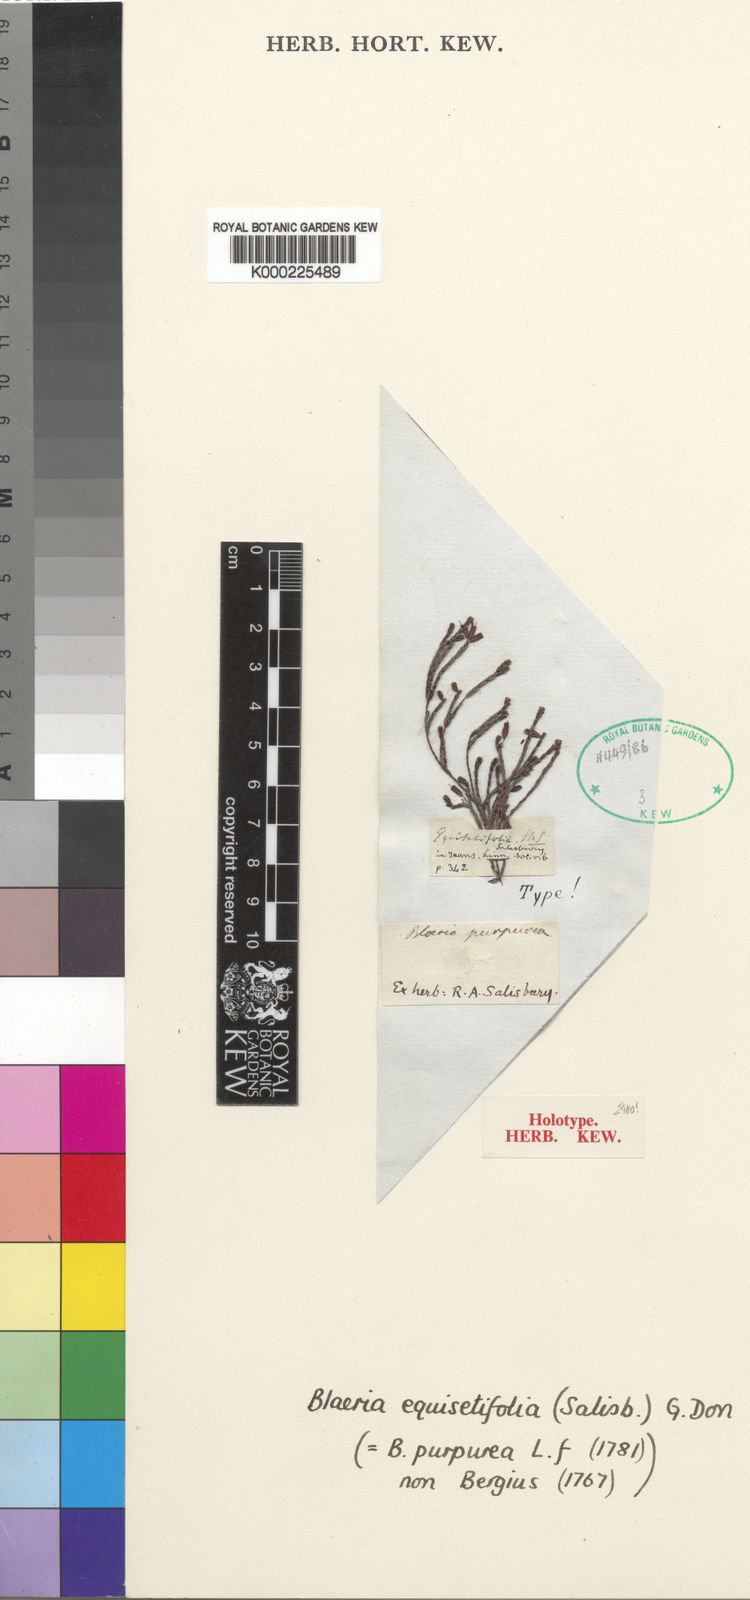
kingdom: Plantae
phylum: Tracheophyta
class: Magnoliopsida
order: Ericales
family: Ericaceae
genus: Erica
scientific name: Erica equisetifolia
